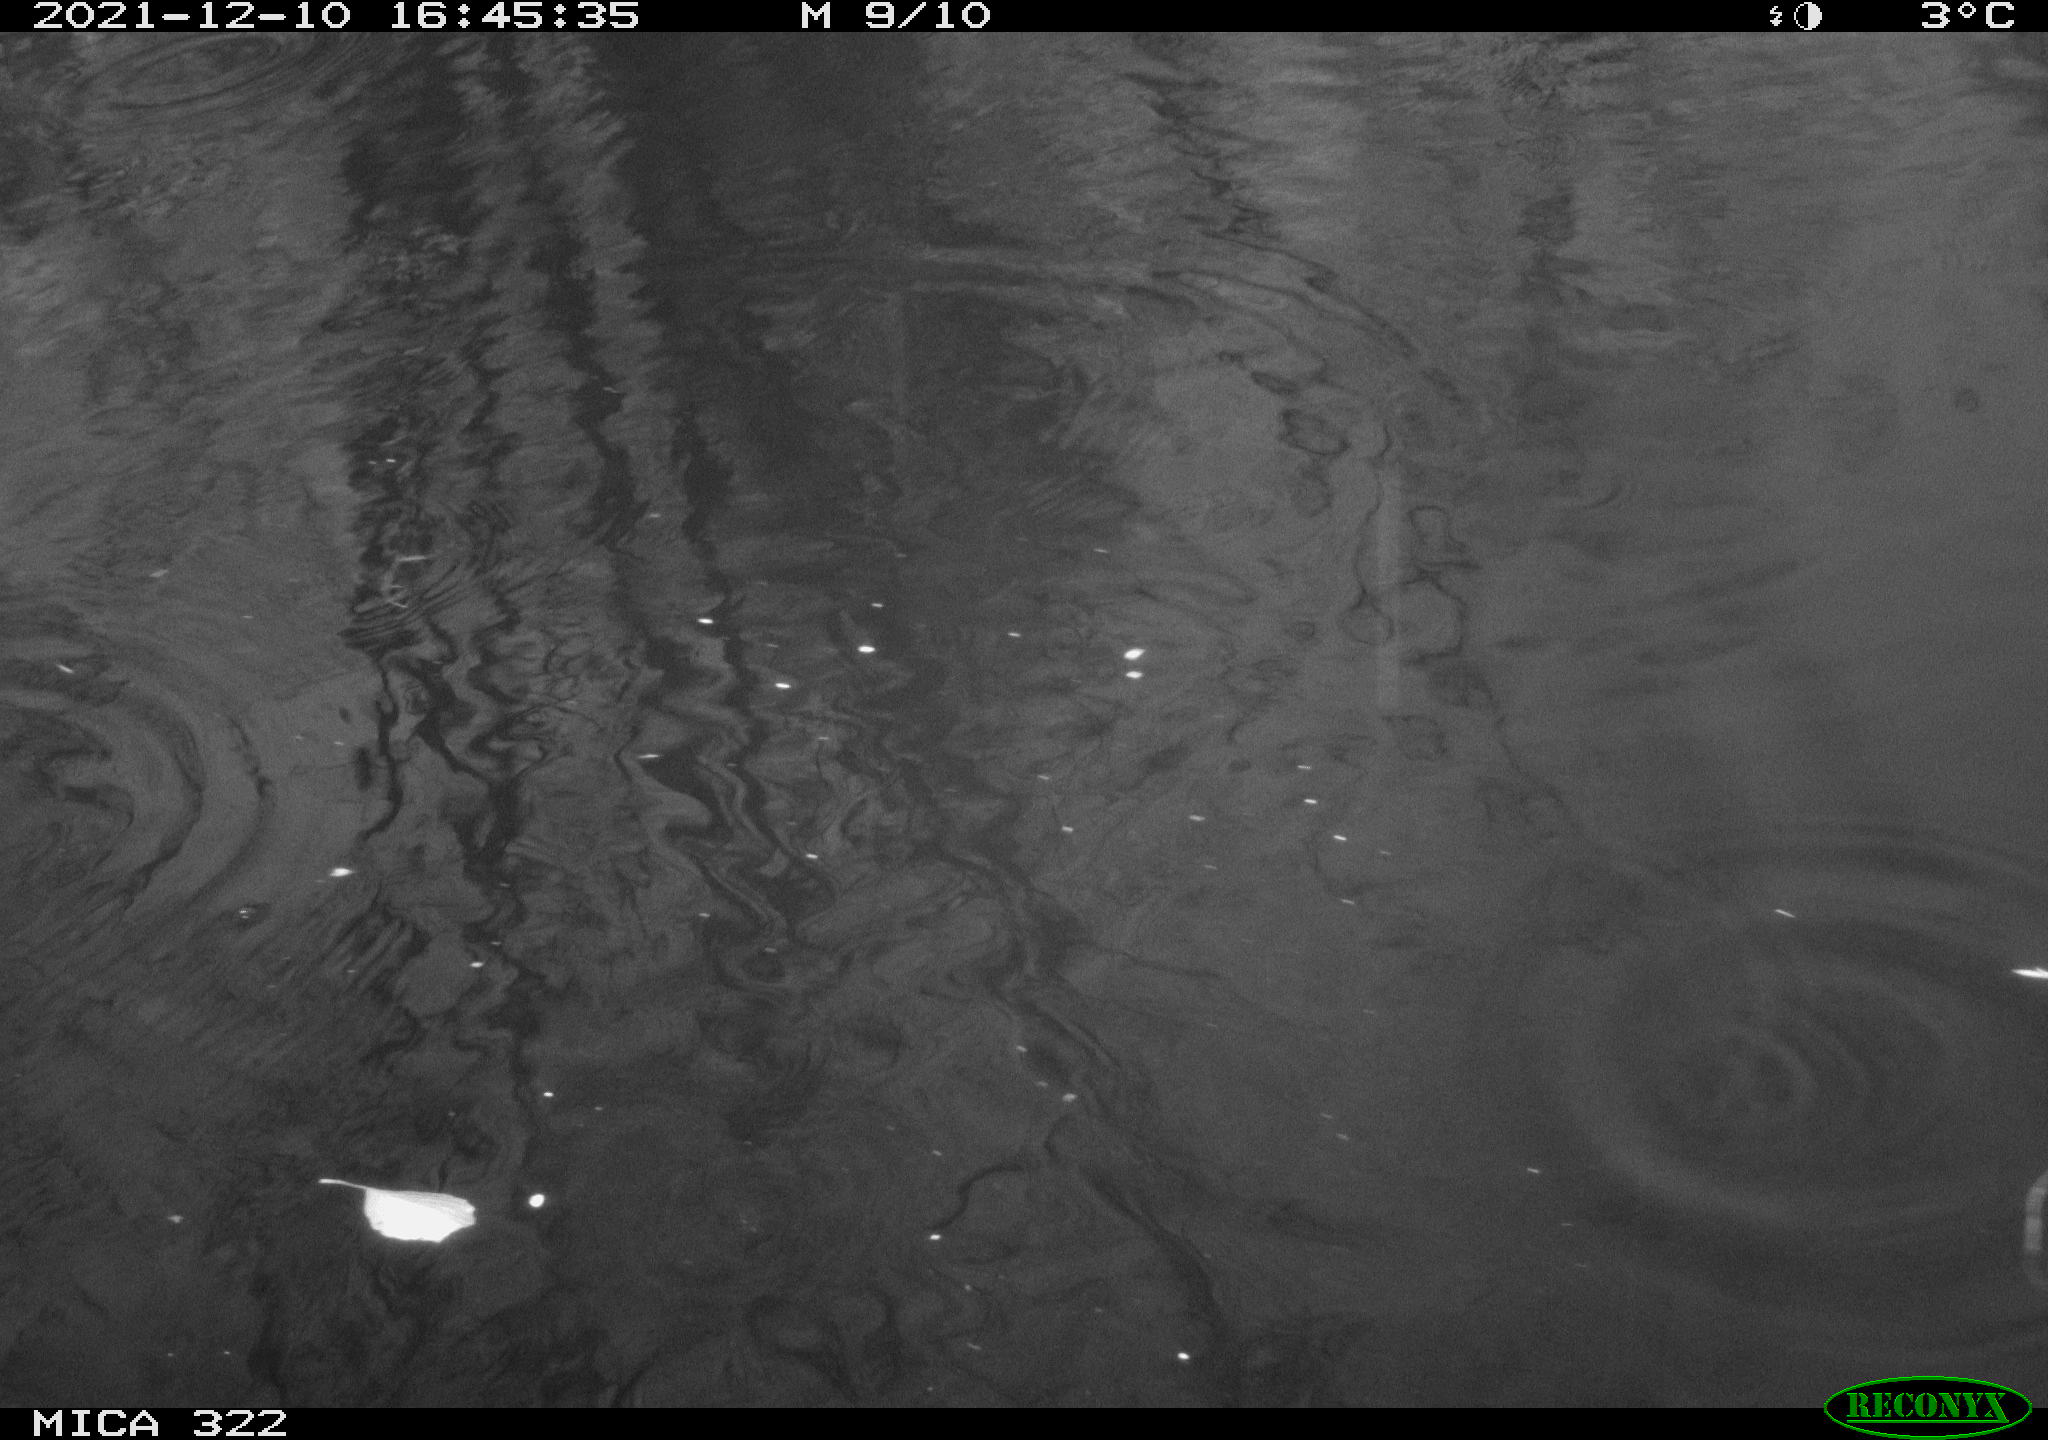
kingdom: Animalia
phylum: Chordata
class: Aves
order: Gruiformes
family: Rallidae
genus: Gallinula
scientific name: Gallinula chloropus
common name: Common moorhen
